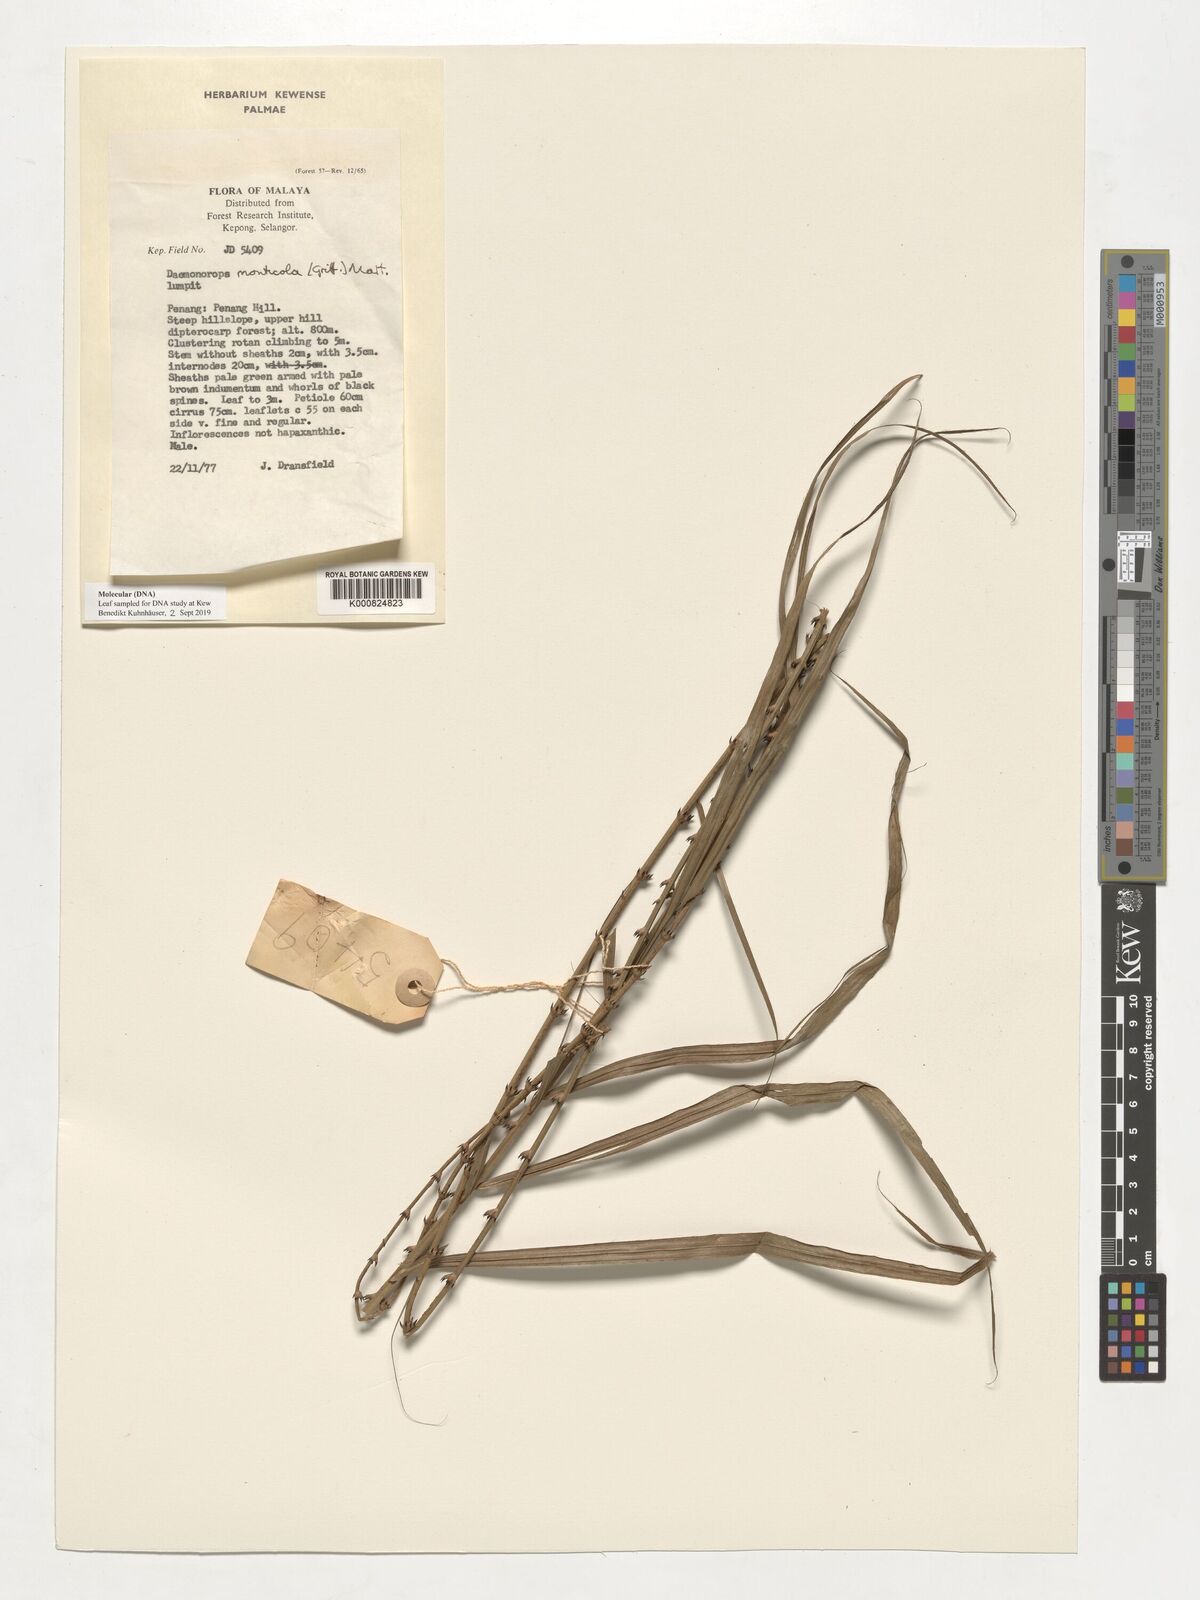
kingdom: Plantae
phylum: Tracheophyta
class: Liliopsida
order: Arecales
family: Arecaceae
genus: Calamus
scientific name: Calamus melanochaetes
